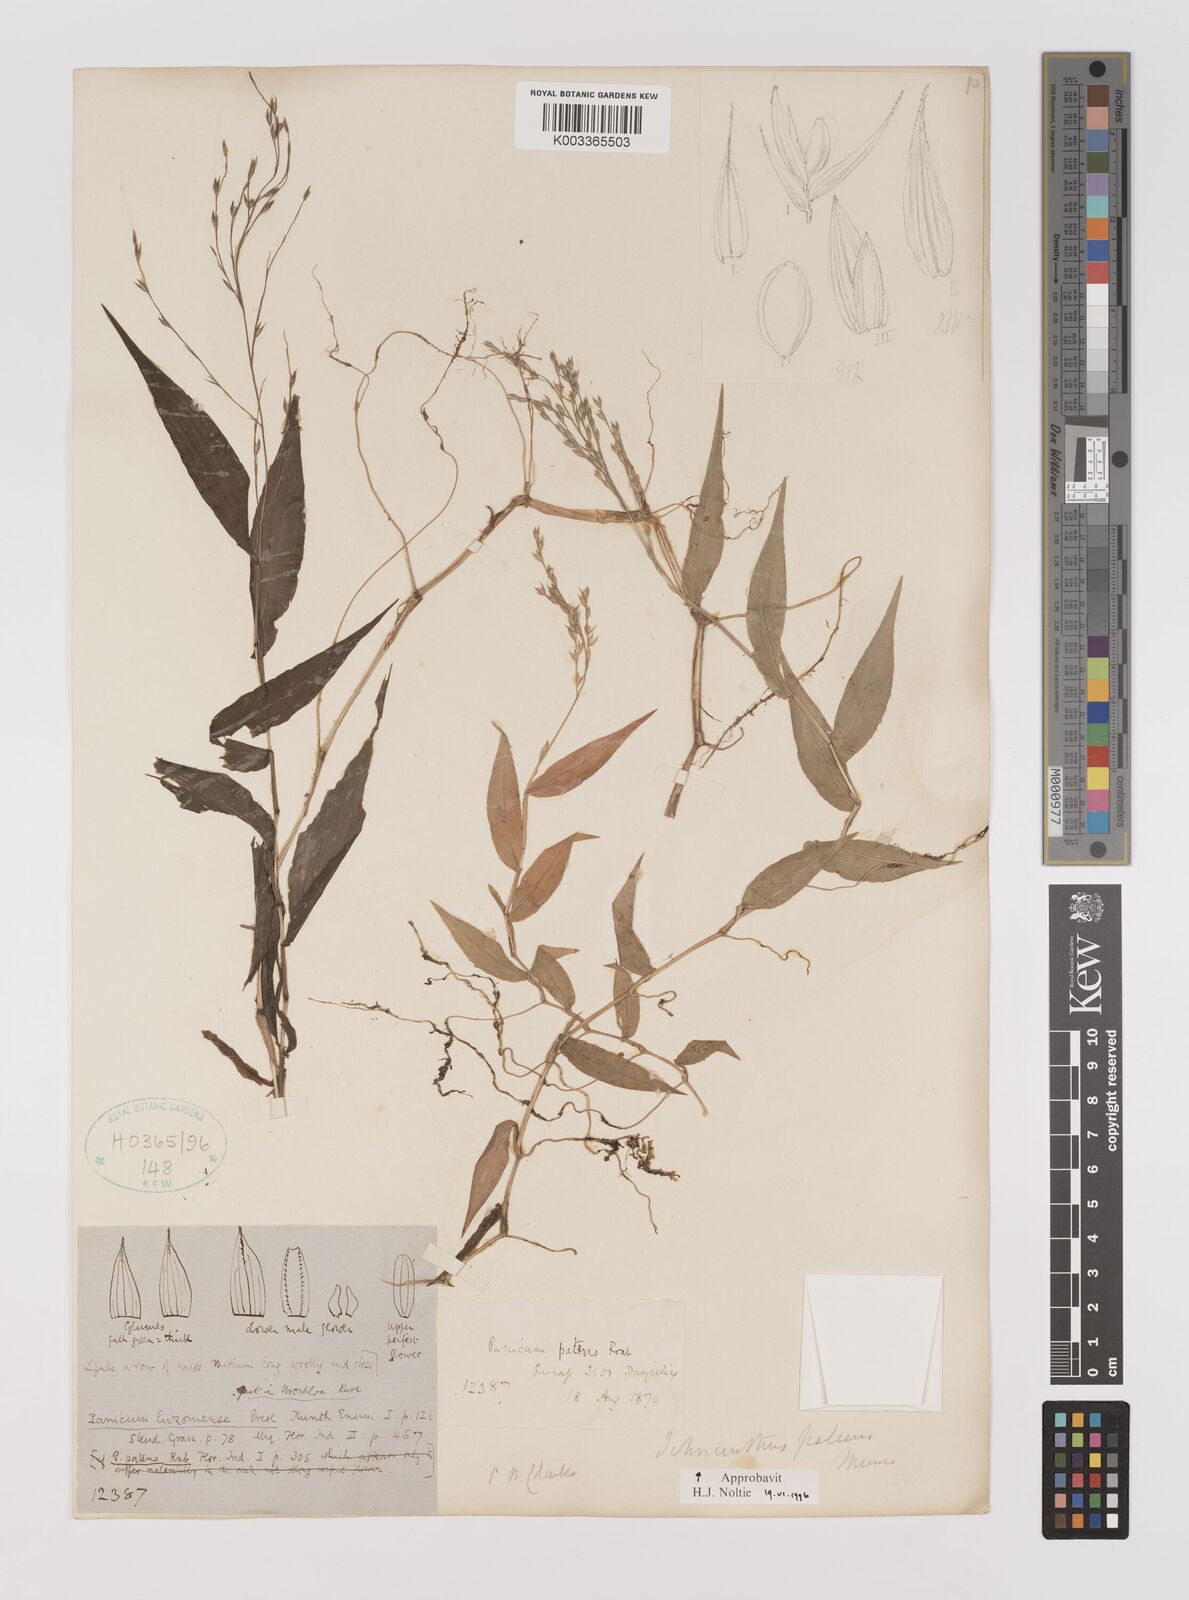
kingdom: Plantae
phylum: Tracheophyta
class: Liliopsida
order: Poales
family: Poaceae
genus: Ichnanthus
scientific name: Ichnanthus pallens
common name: Water grass
